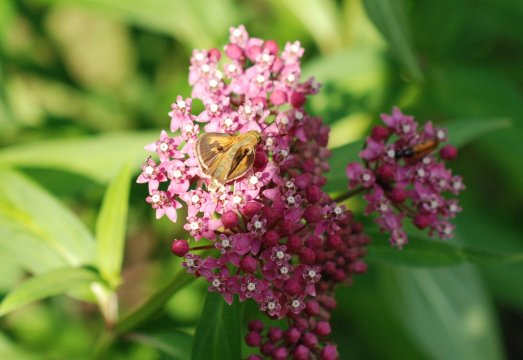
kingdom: Animalia
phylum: Arthropoda
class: Insecta
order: Lepidoptera
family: Hesperiidae
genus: Polites
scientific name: Polites
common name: Crossline Skipper
